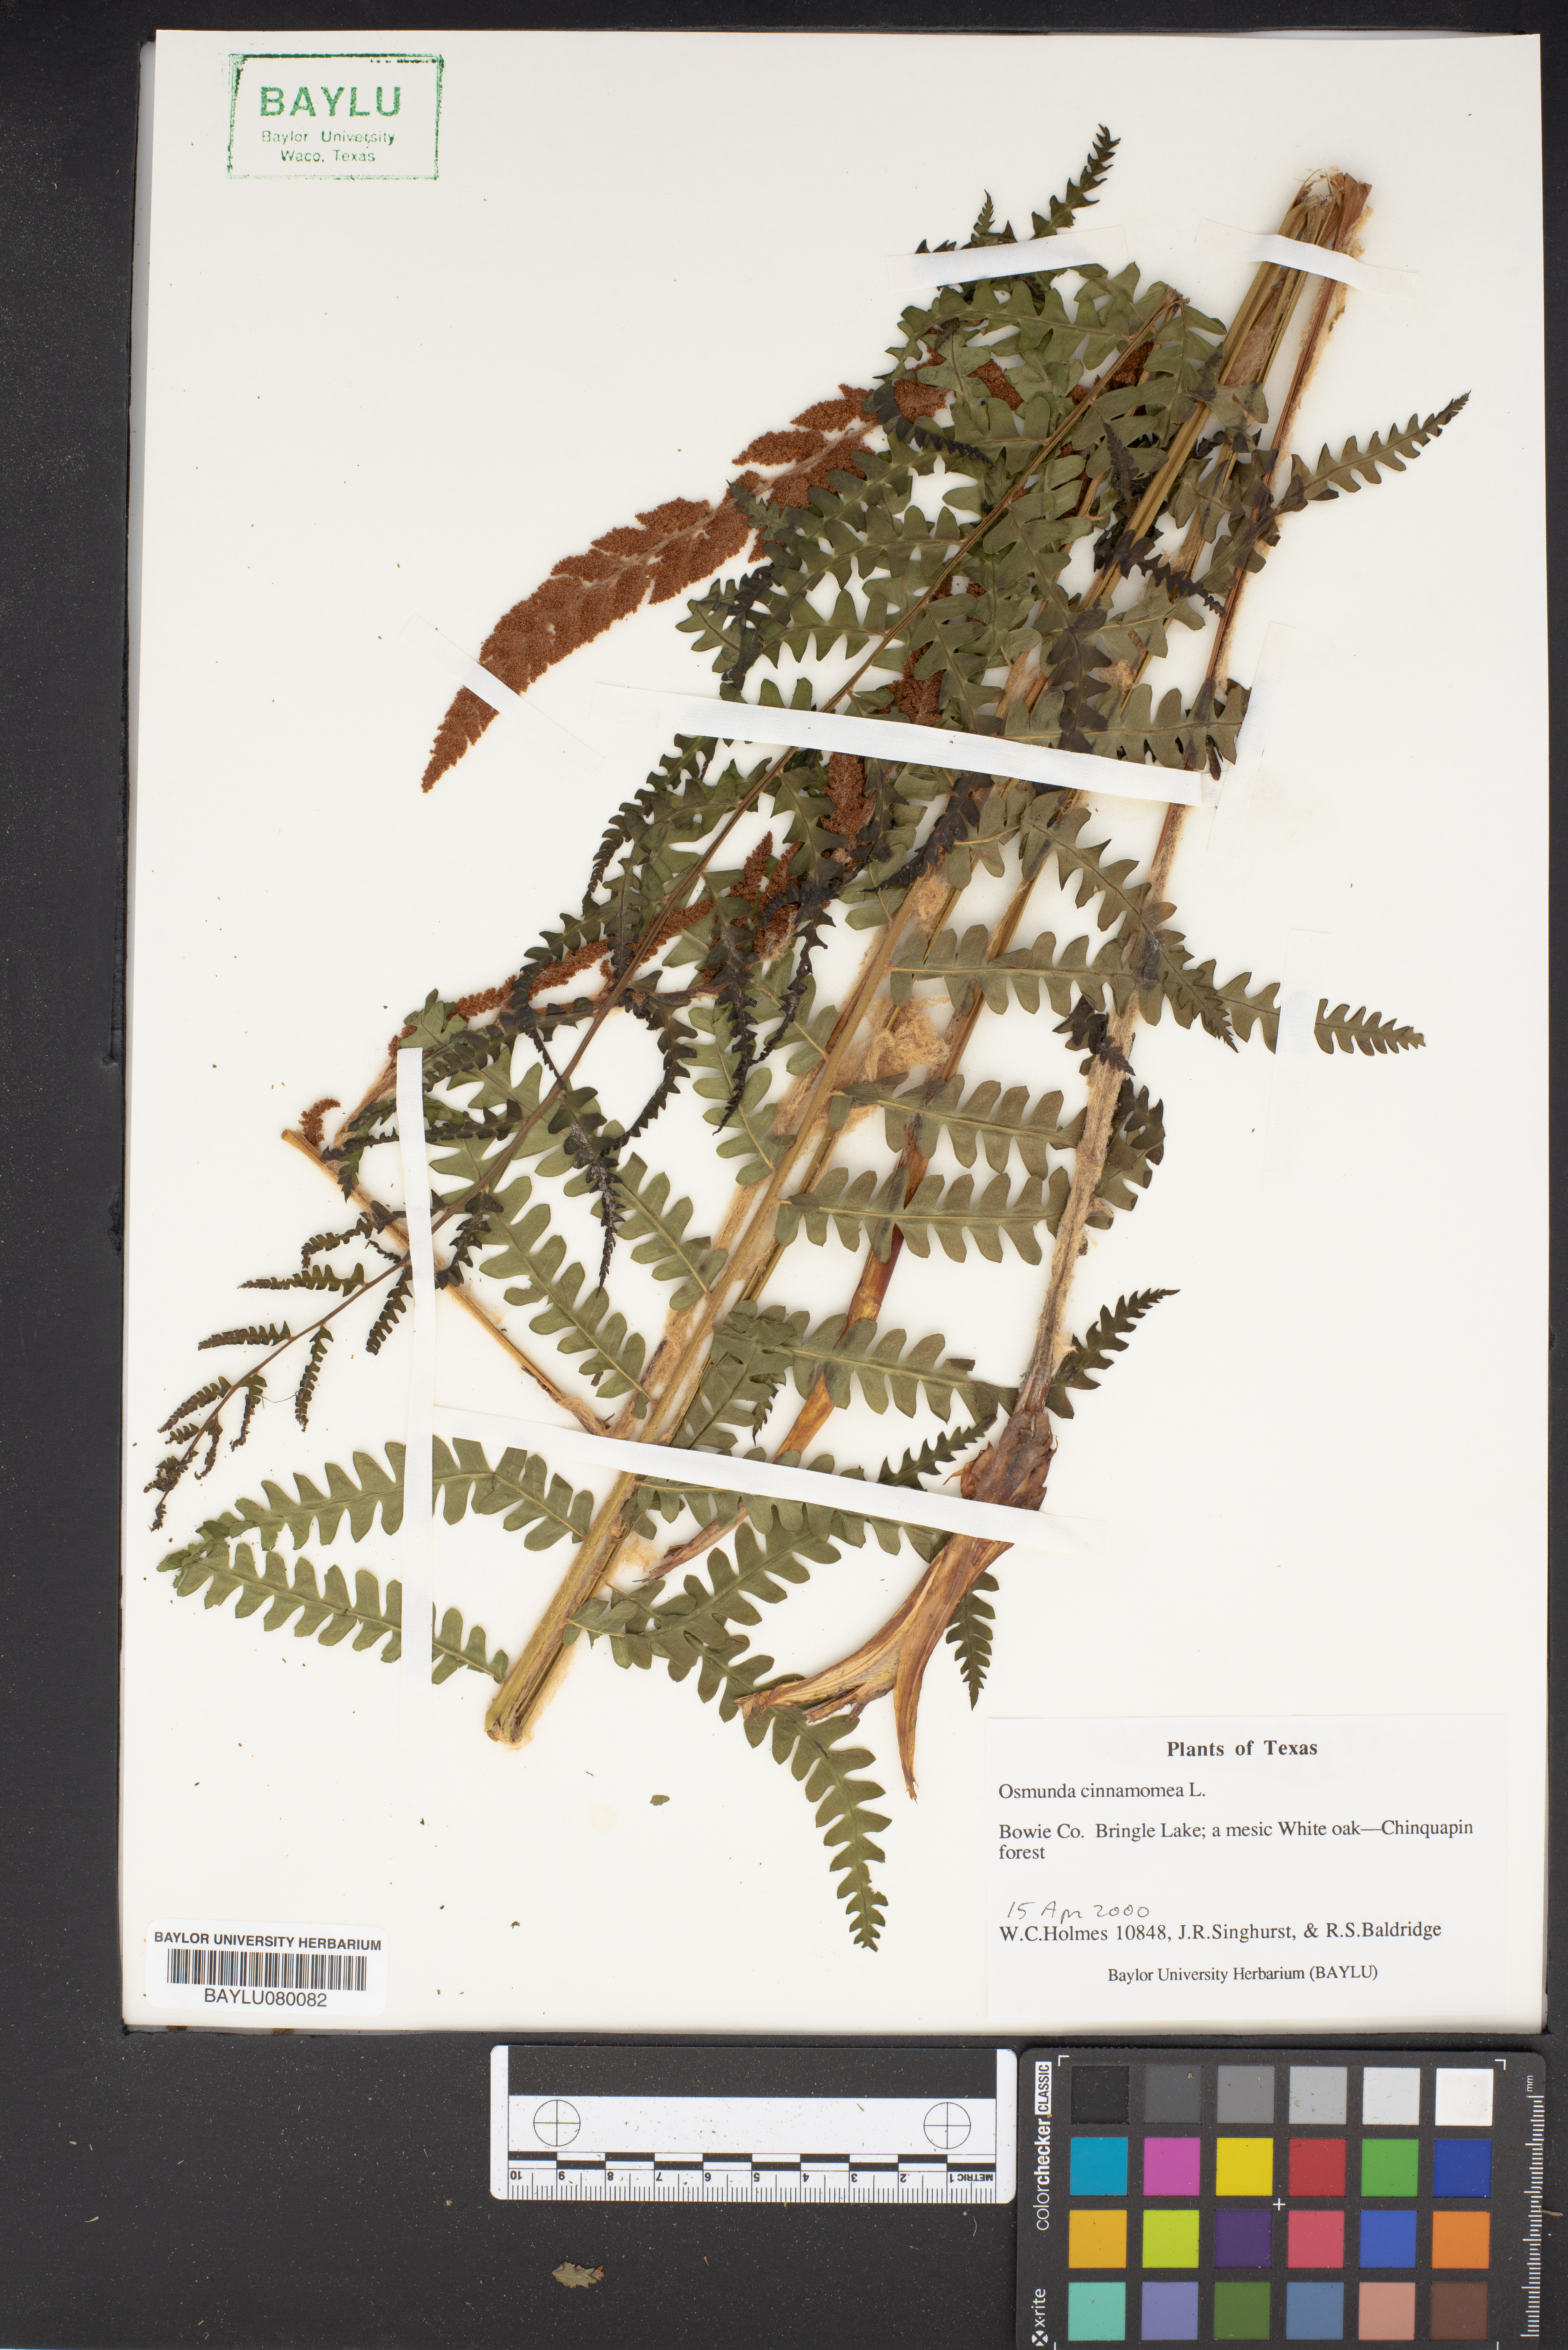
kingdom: Plantae
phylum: Tracheophyta
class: Polypodiopsida
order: Osmundales
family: Osmundaceae
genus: Osmundastrum
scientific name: Osmundastrum cinnamomeum
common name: Cinnamon fern
